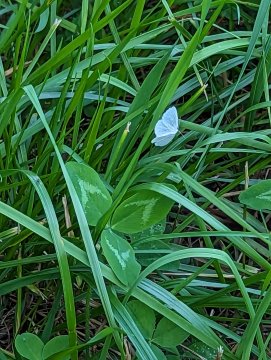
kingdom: Animalia
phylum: Arthropoda
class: Insecta
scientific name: Insecta
